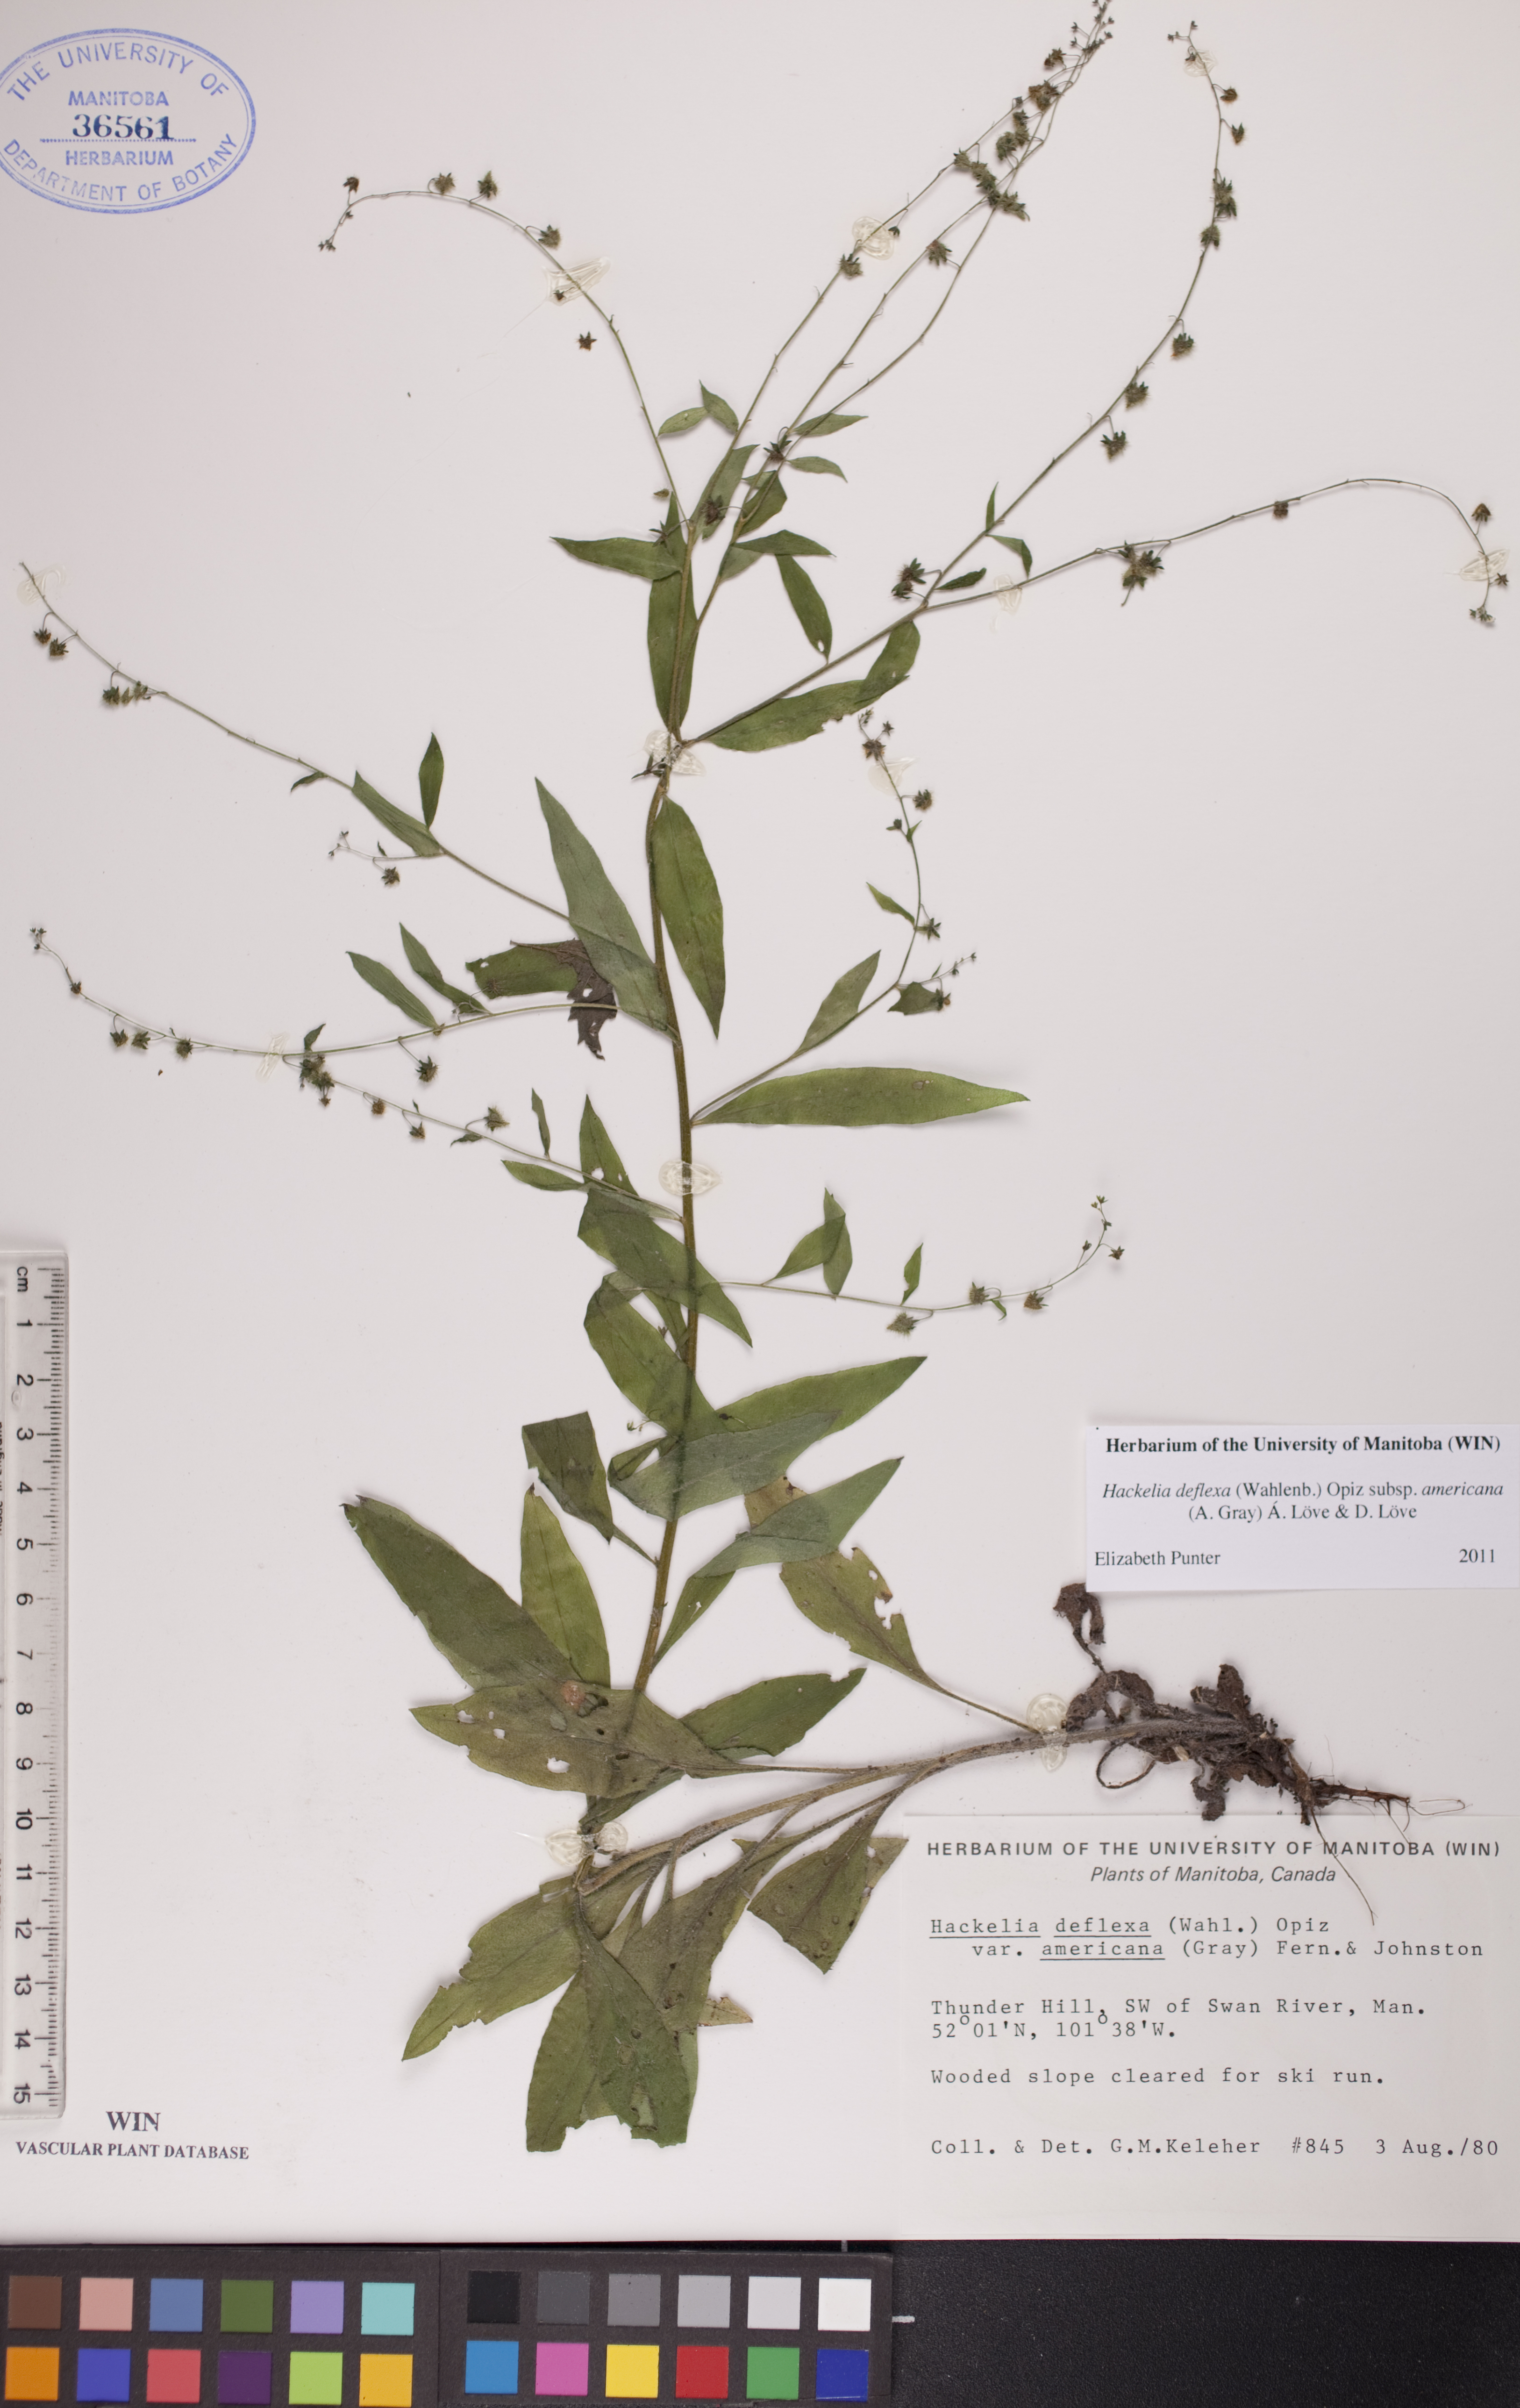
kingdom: Plantae
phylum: Tracheophyta
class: Magnoliopsida
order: Boraginales
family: Boraginaceae
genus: Hackelia
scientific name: Hackelia deflexa
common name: Nodding stickseed
